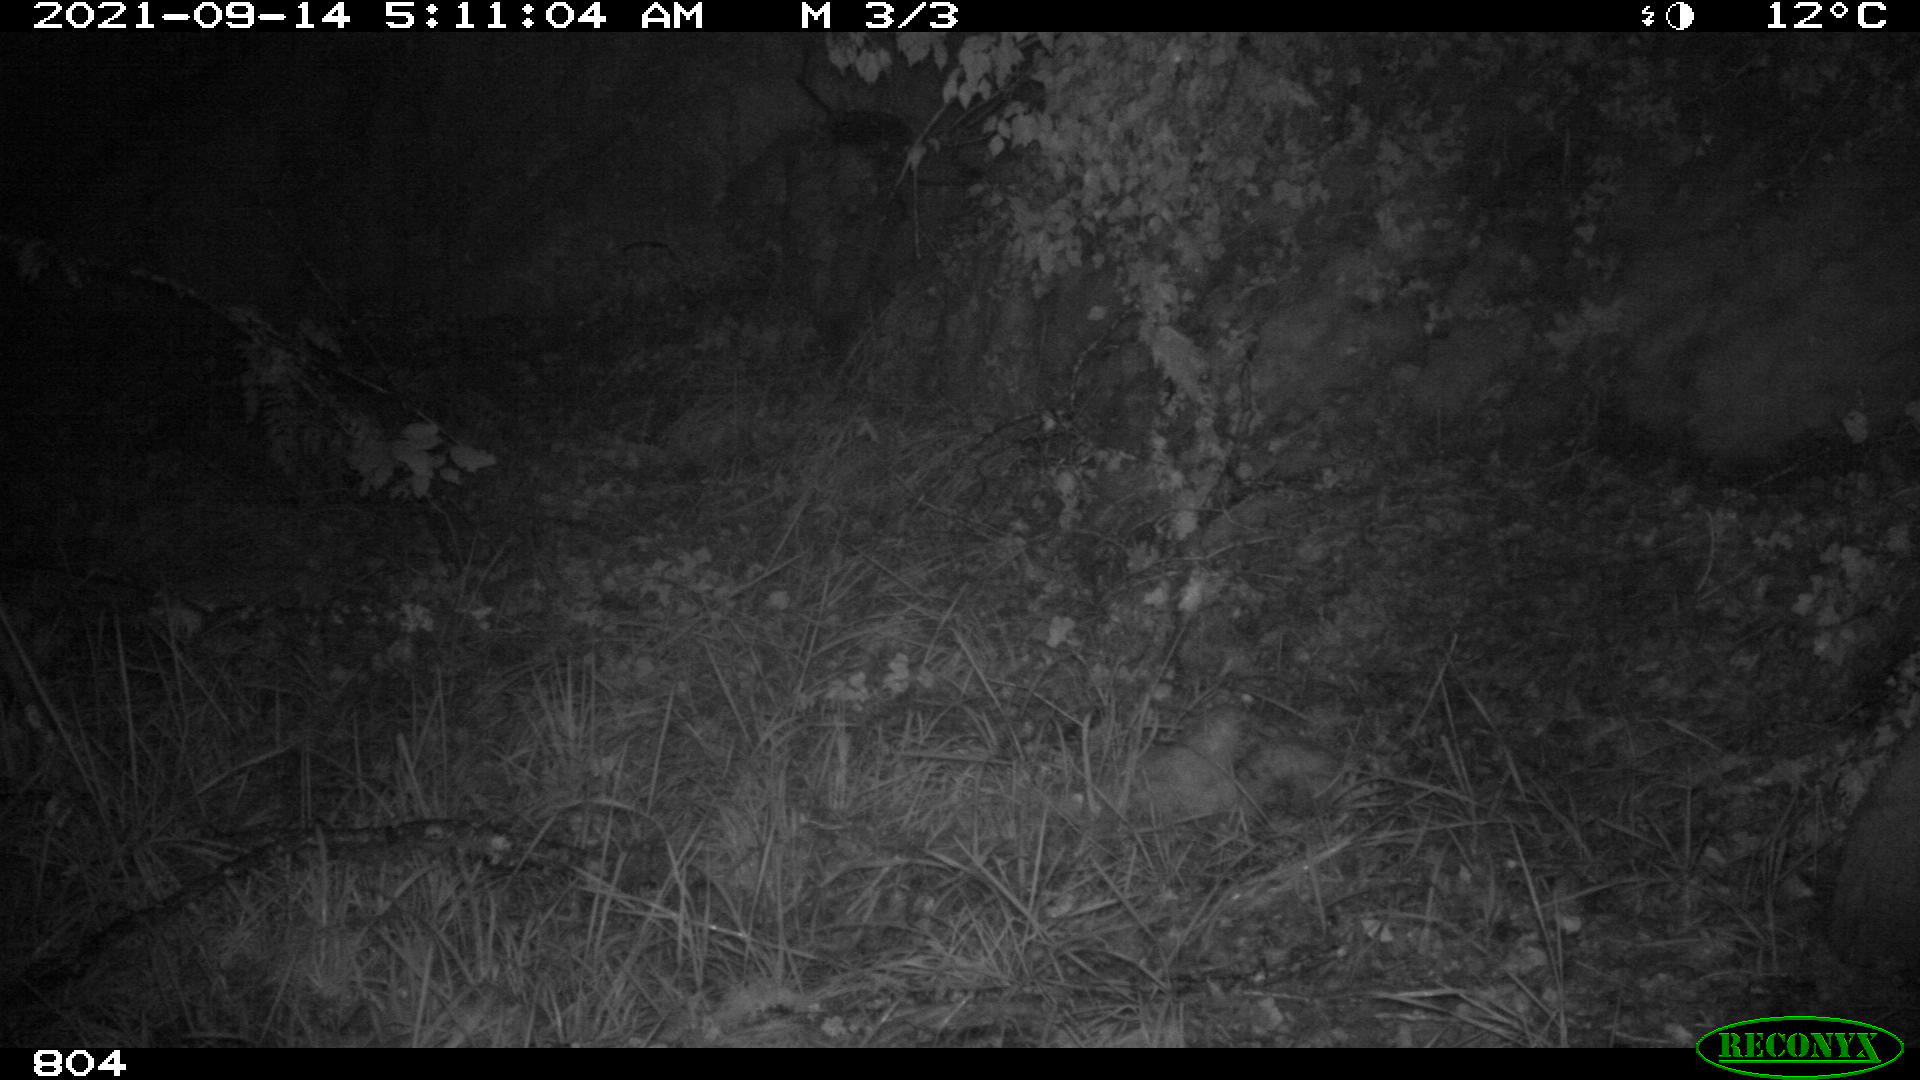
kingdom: Animalia
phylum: Chordata
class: Mammalia
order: Artiodactyla
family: Suidae
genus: Sus
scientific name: Sus scrofa
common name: Wild boar
